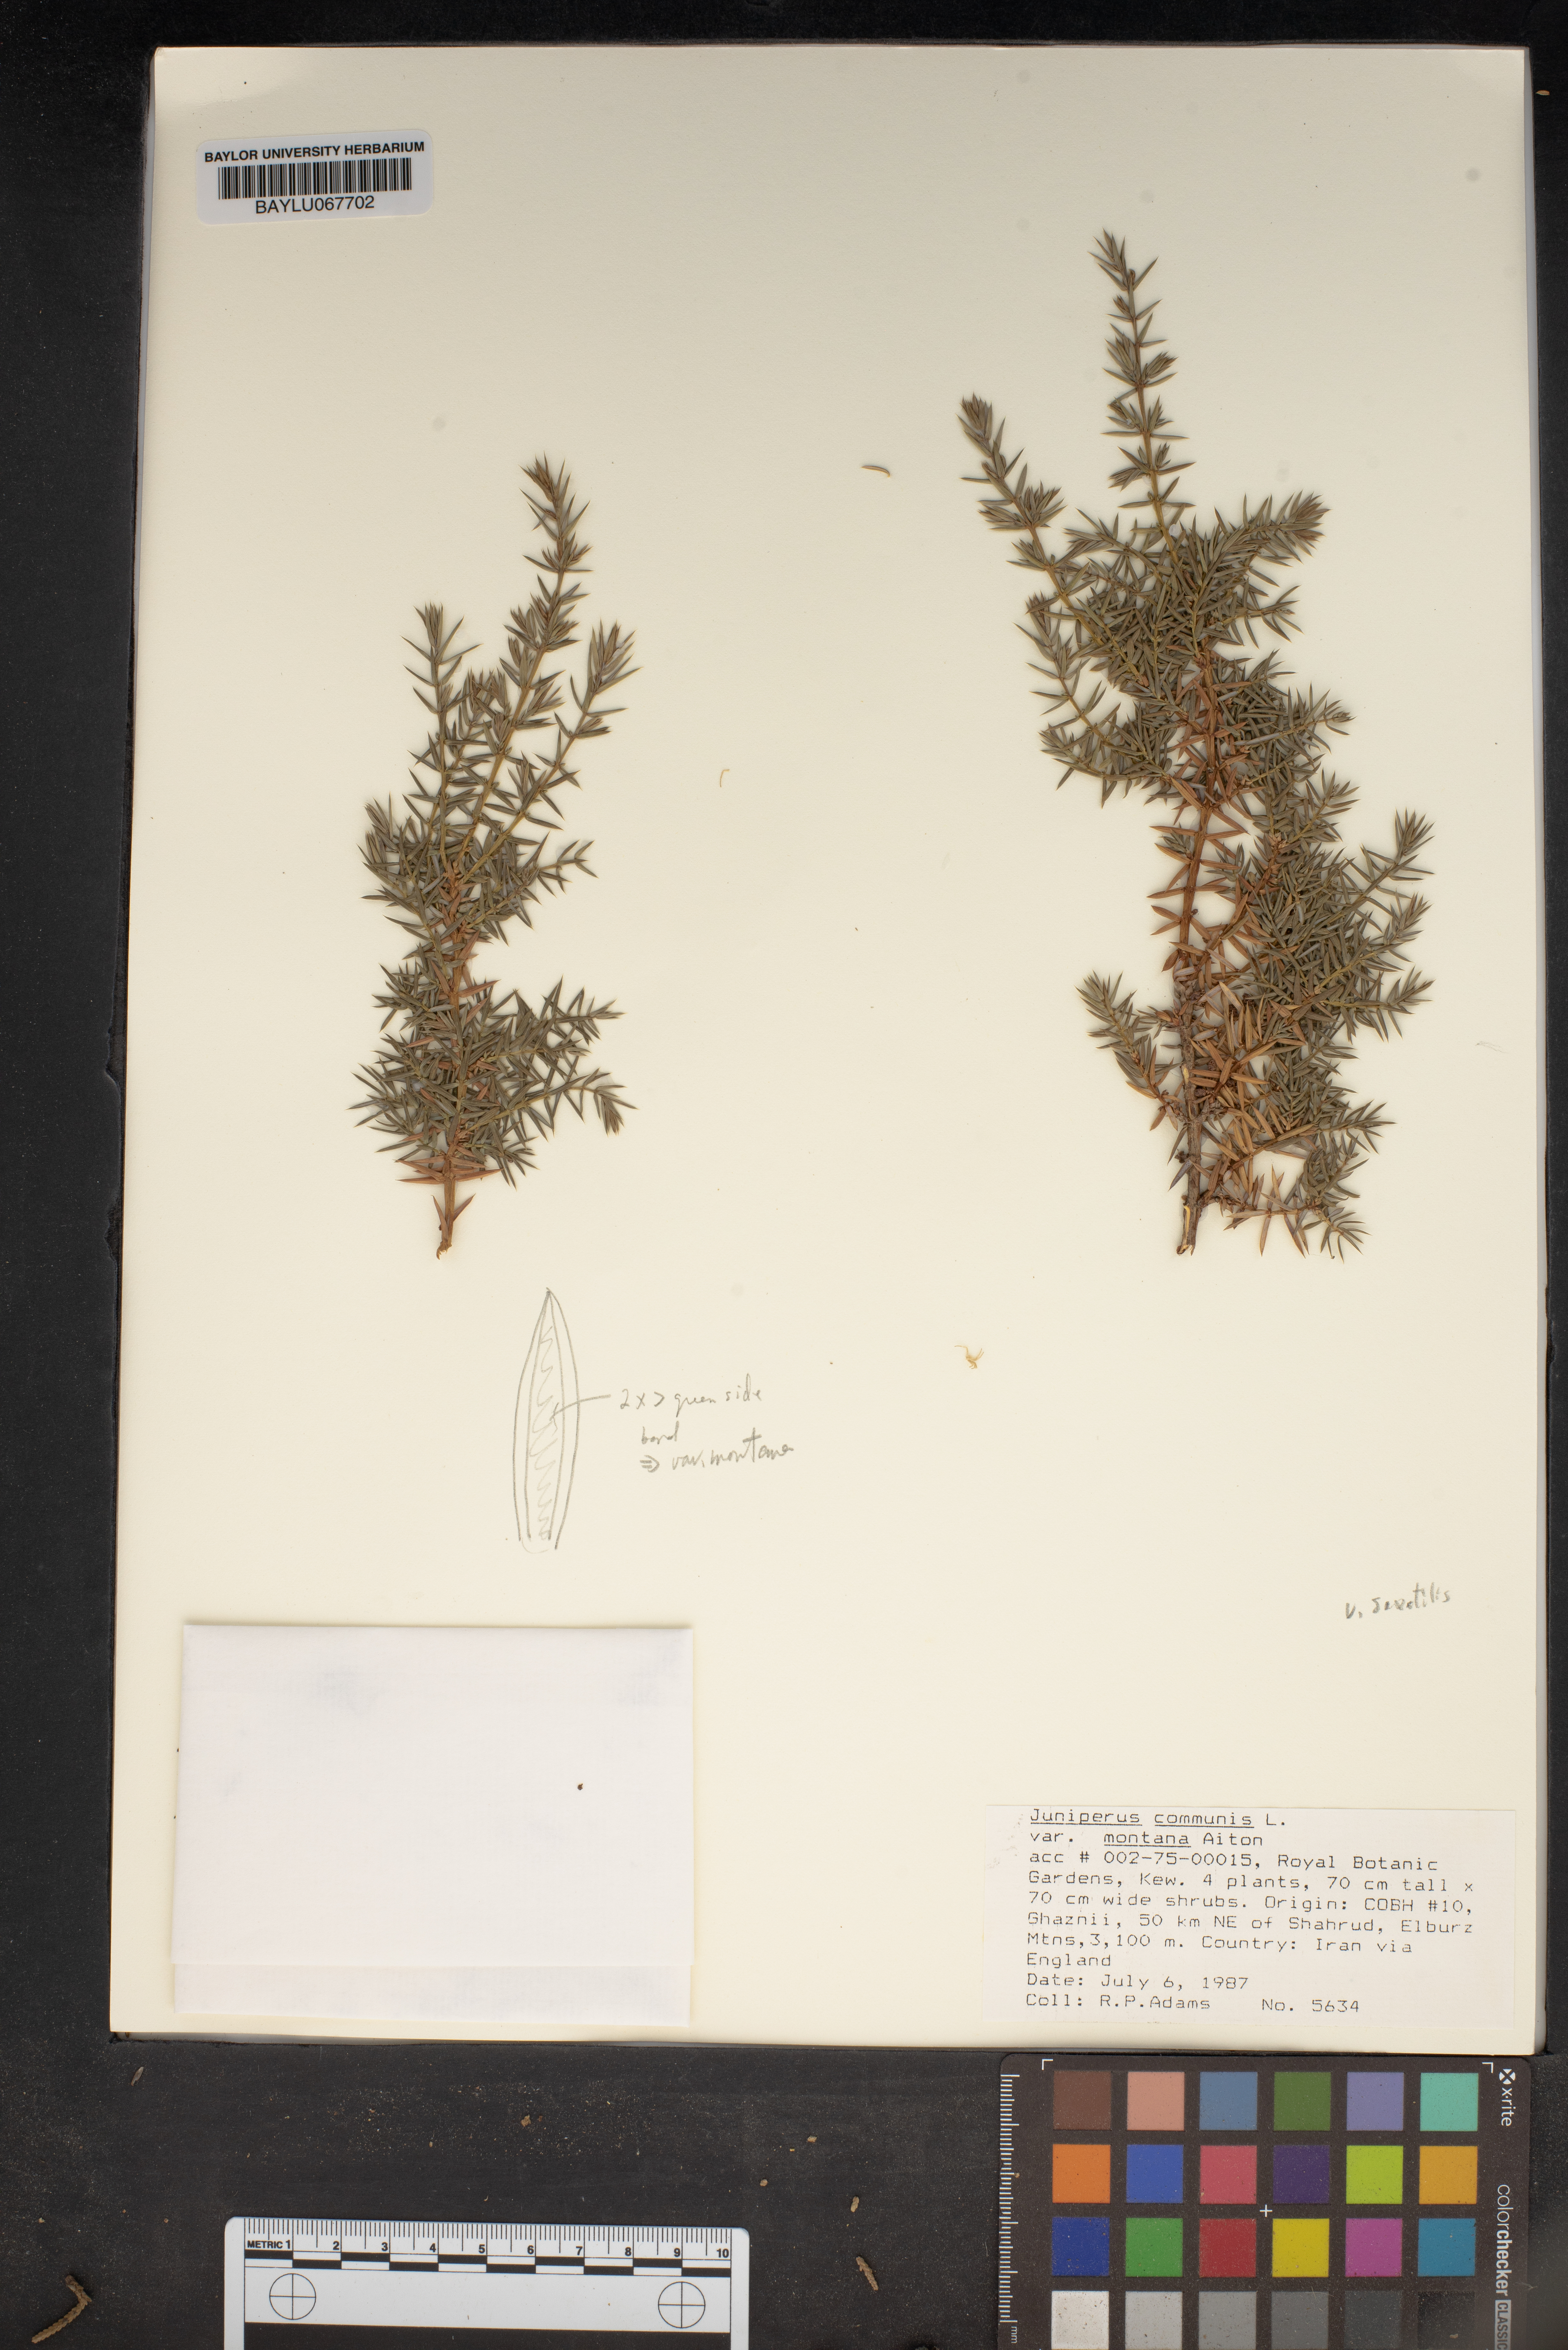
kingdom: Plantae
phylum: Tracheophyta
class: Pinopsida
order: Pinales
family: Cupressaceae
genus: Juniperus
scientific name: Juniperus communis
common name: Common juniper
